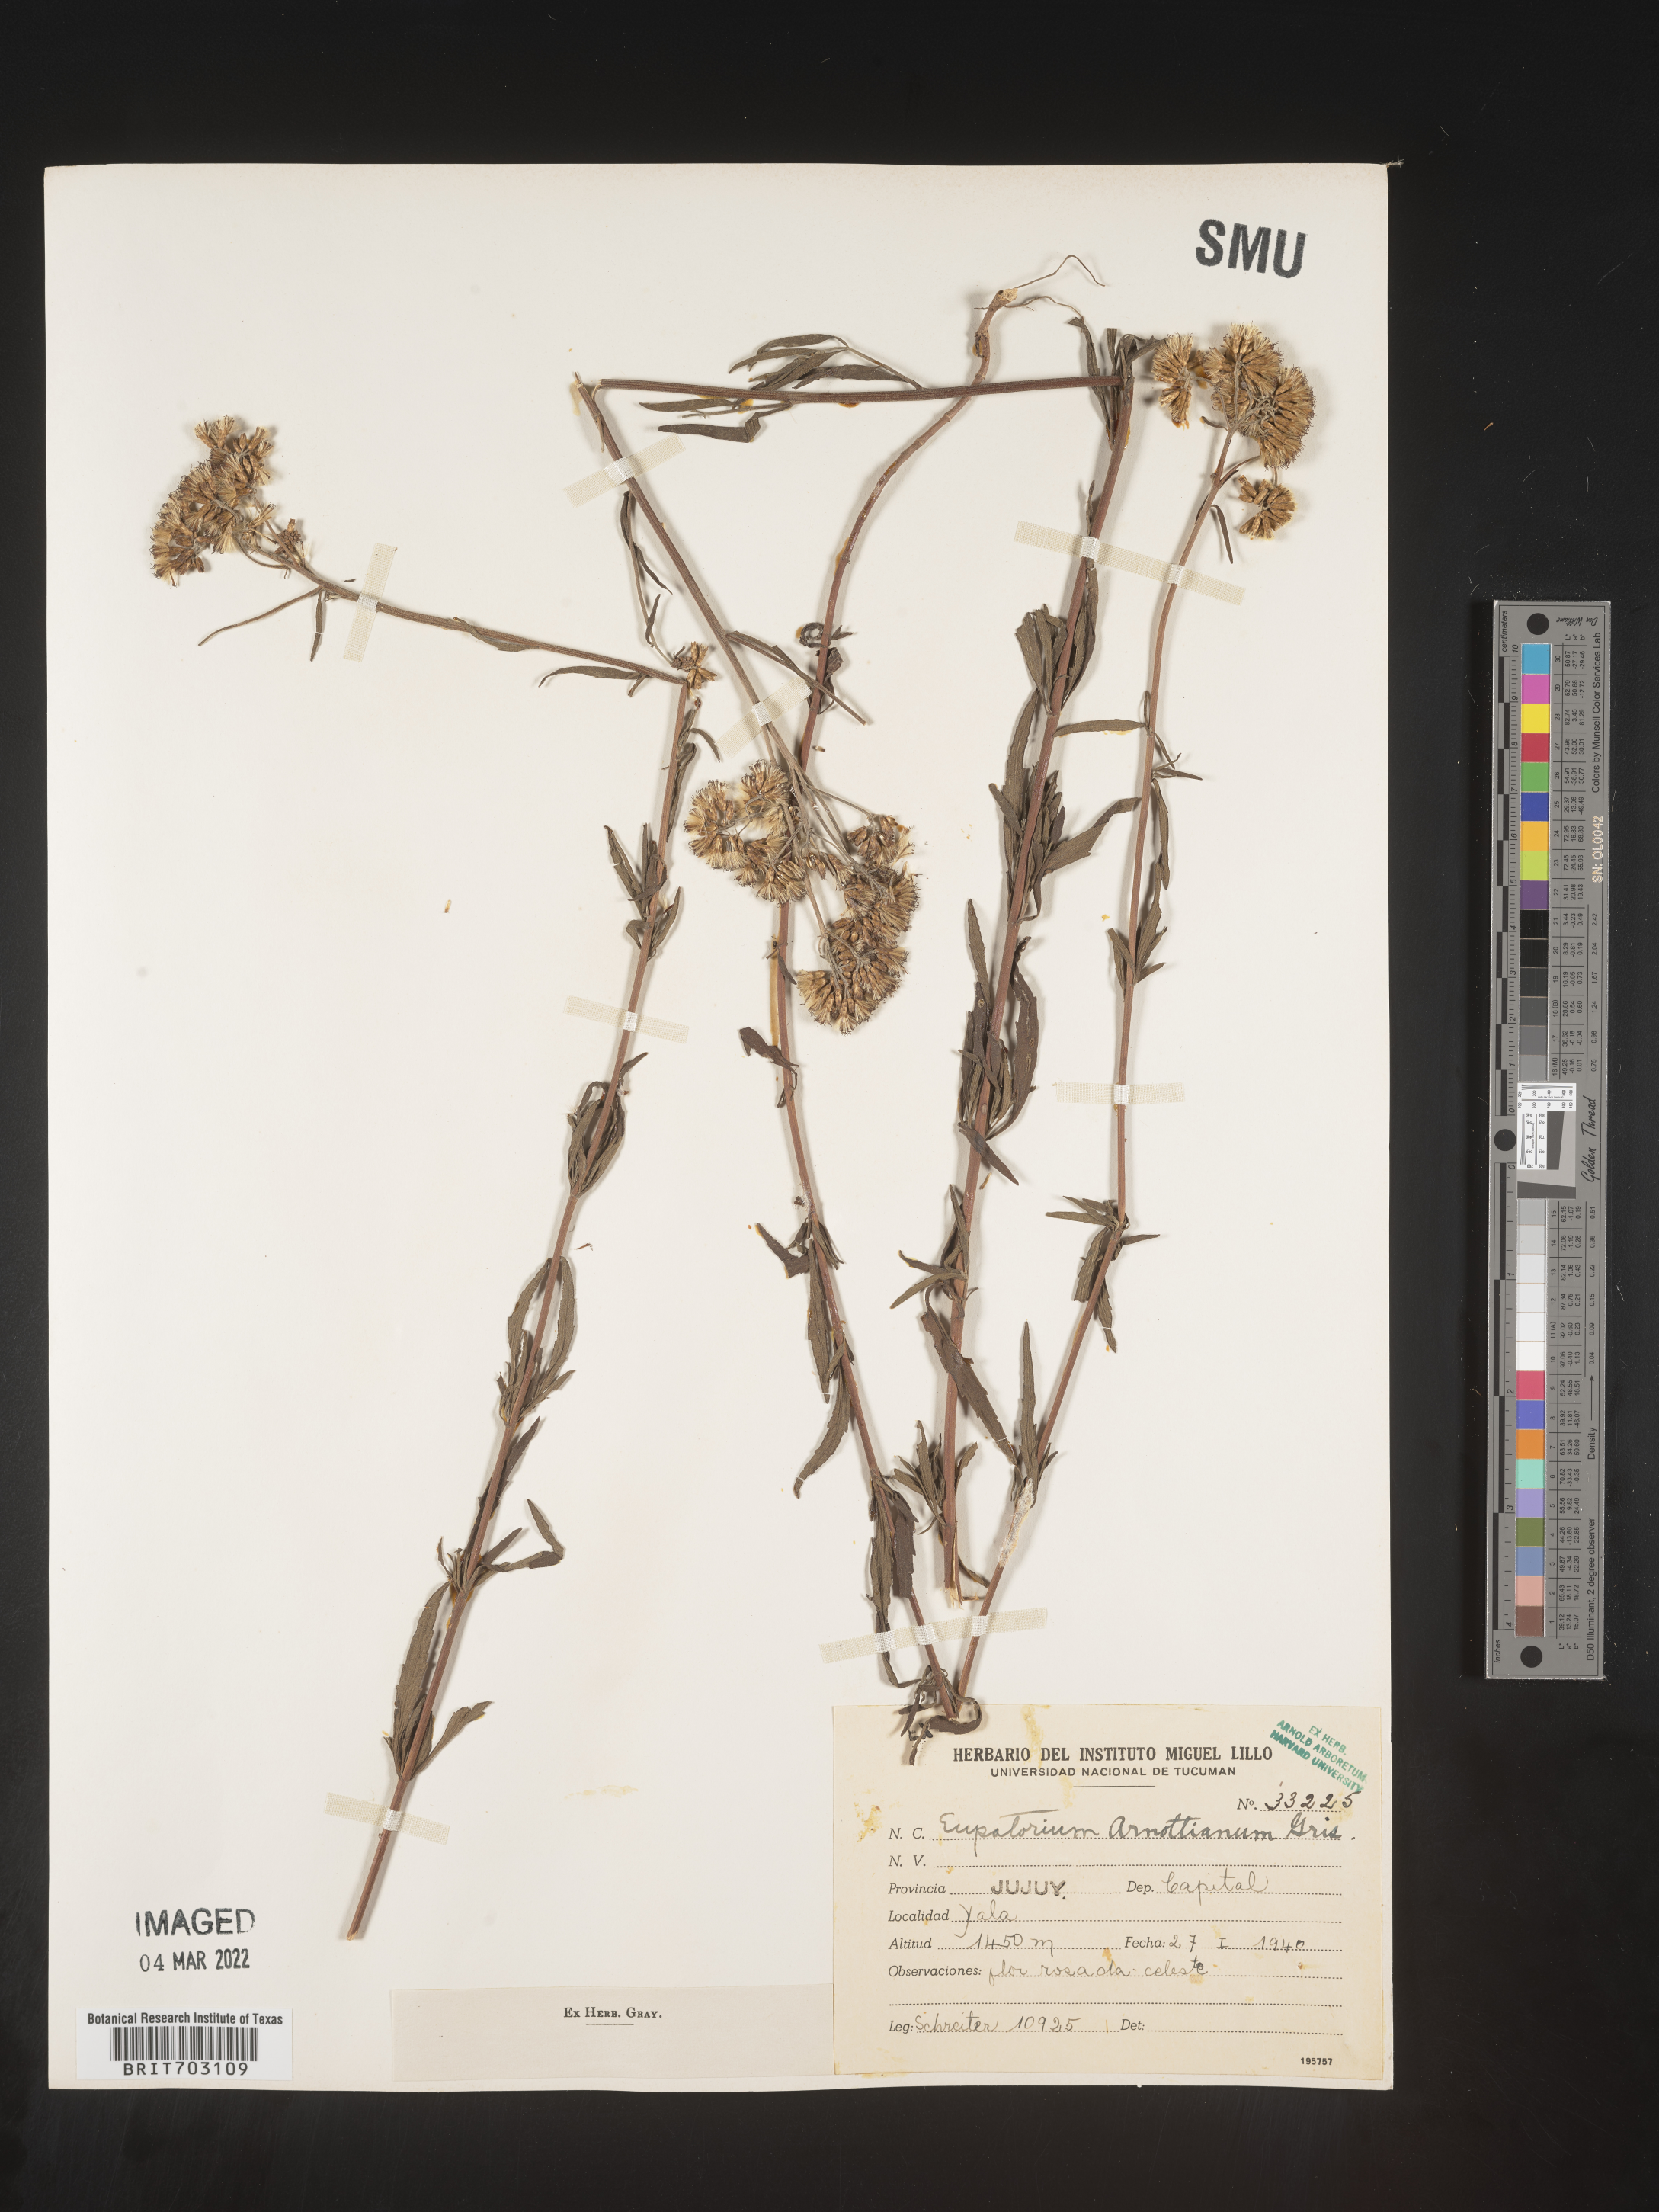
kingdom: Plantae
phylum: Tracheophyta
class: Magnoliopsida
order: Asterales
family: Asteraceae
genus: Eupatorium
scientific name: Eupatorium
